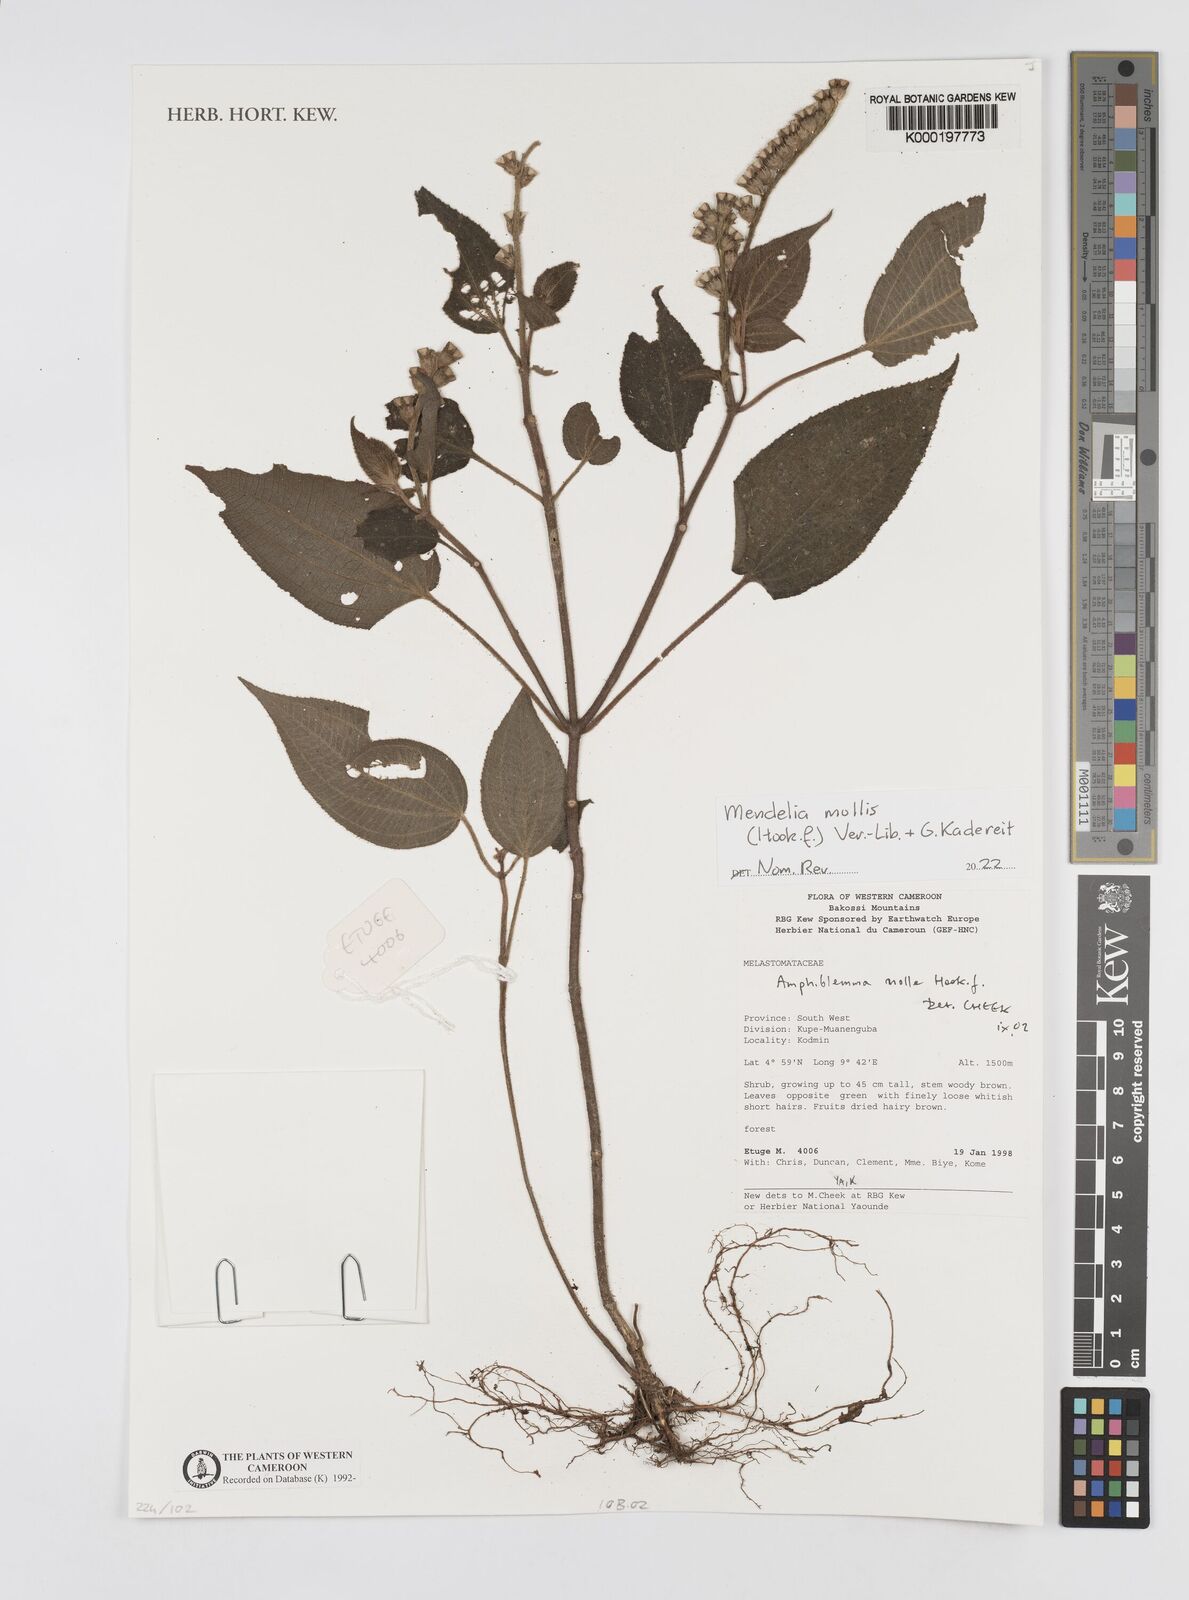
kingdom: Plantae
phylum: Tracheophyta
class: Magnoliopsida
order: Myrtales
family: Melastomataceae
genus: Amphiblemma
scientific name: Amphiblemma molle
